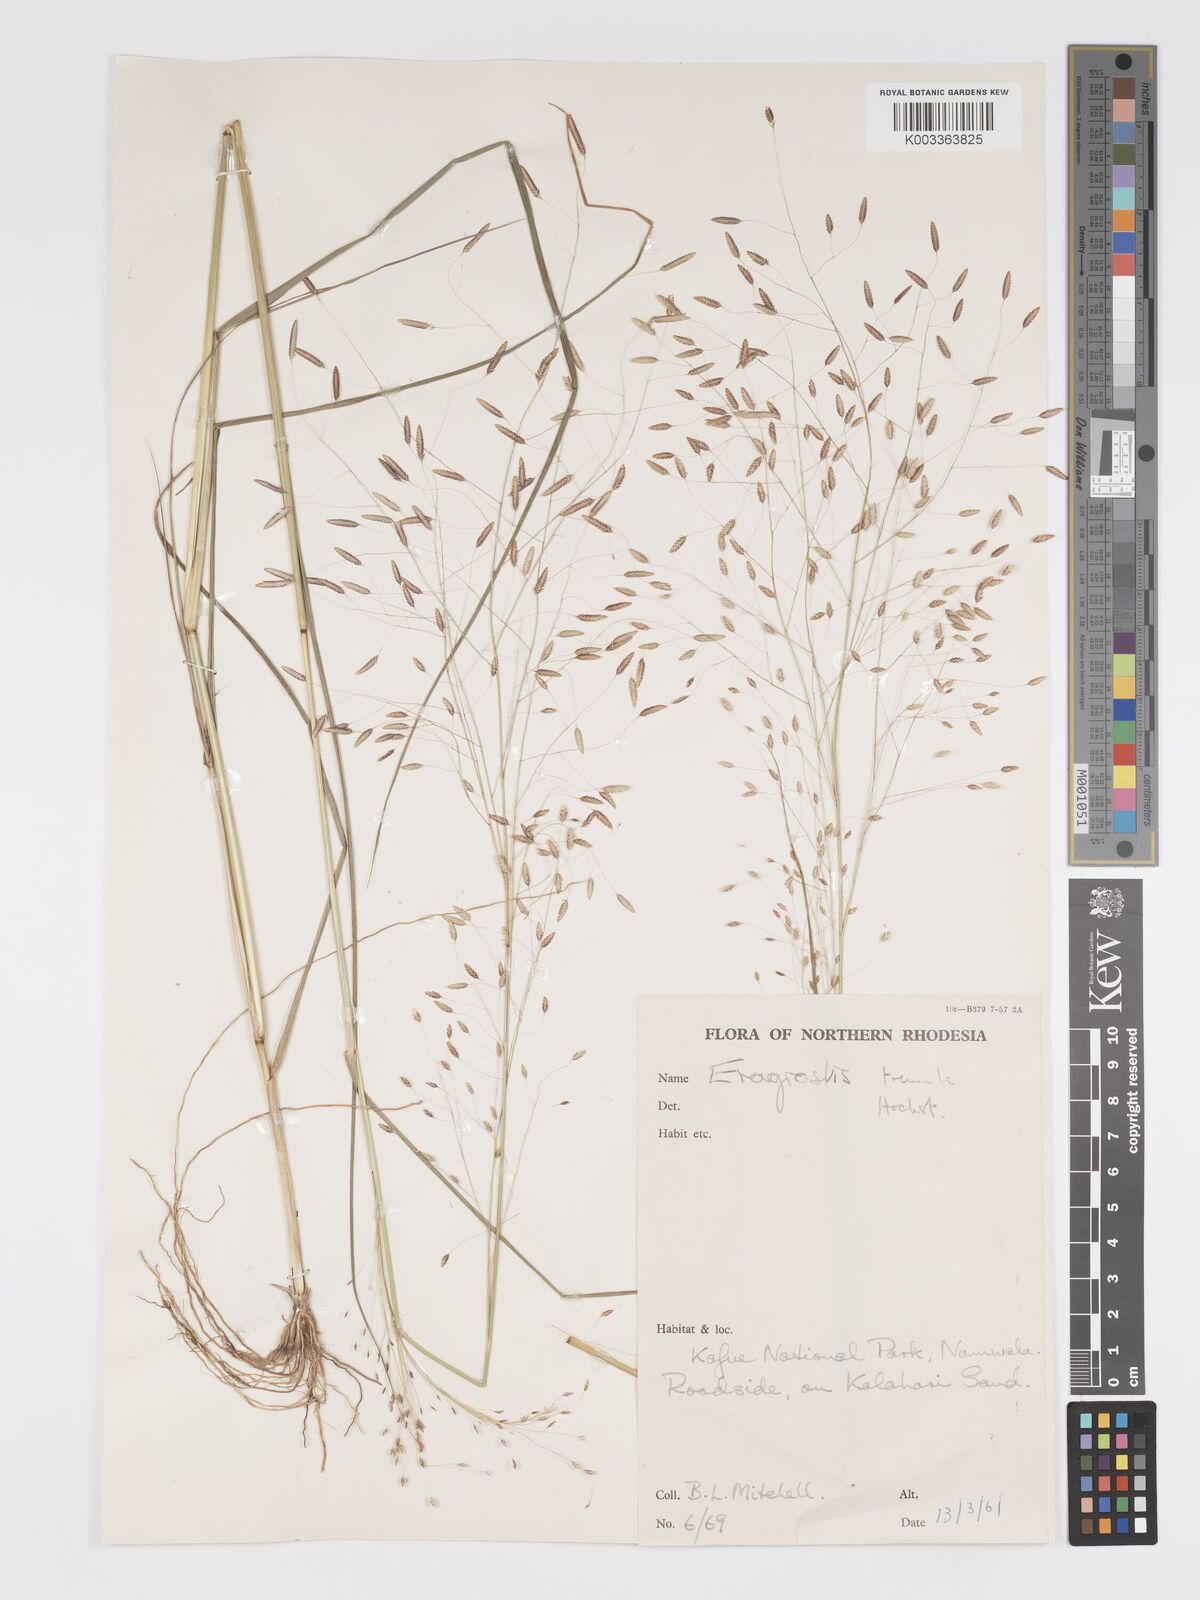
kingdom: Plantae
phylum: Tracheophyta
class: Liliopsida
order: Poales
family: Poaceae
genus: Eragrostis
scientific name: Eragrostis tremula
